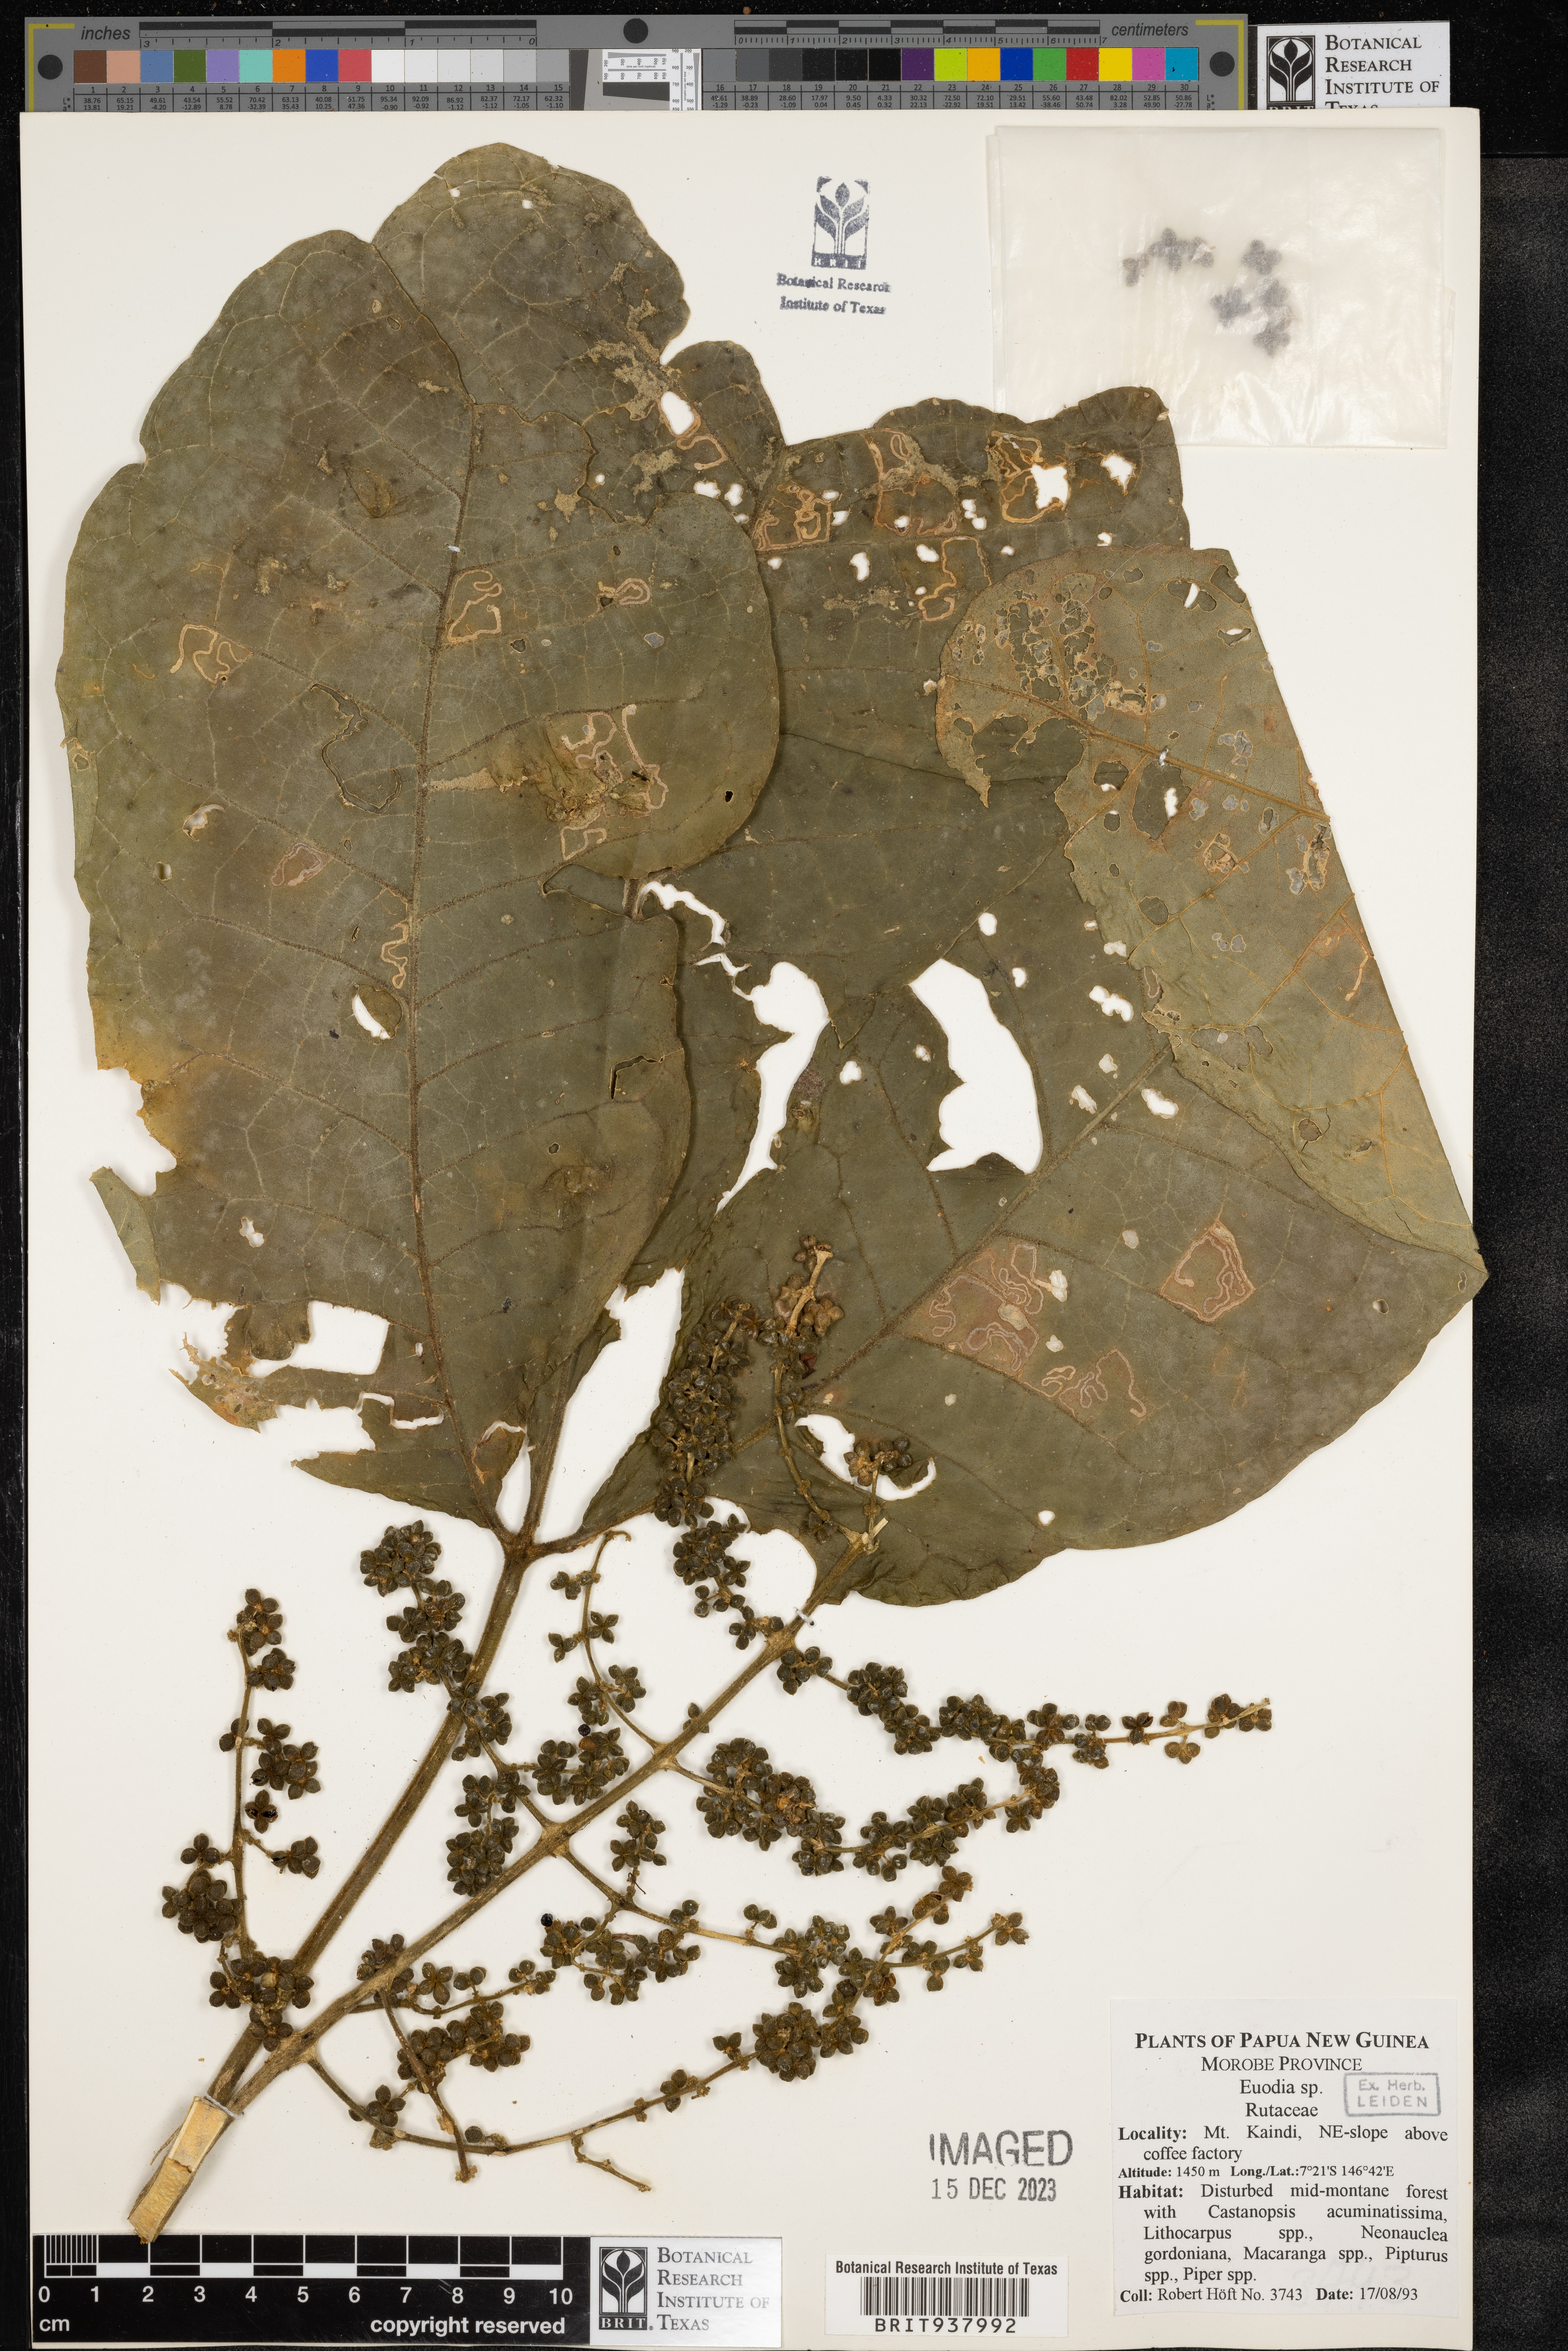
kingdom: Plantae
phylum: Tracheophyta
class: Magnoliopsida
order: Sapindales
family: Rutaceae
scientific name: Rutaceae
